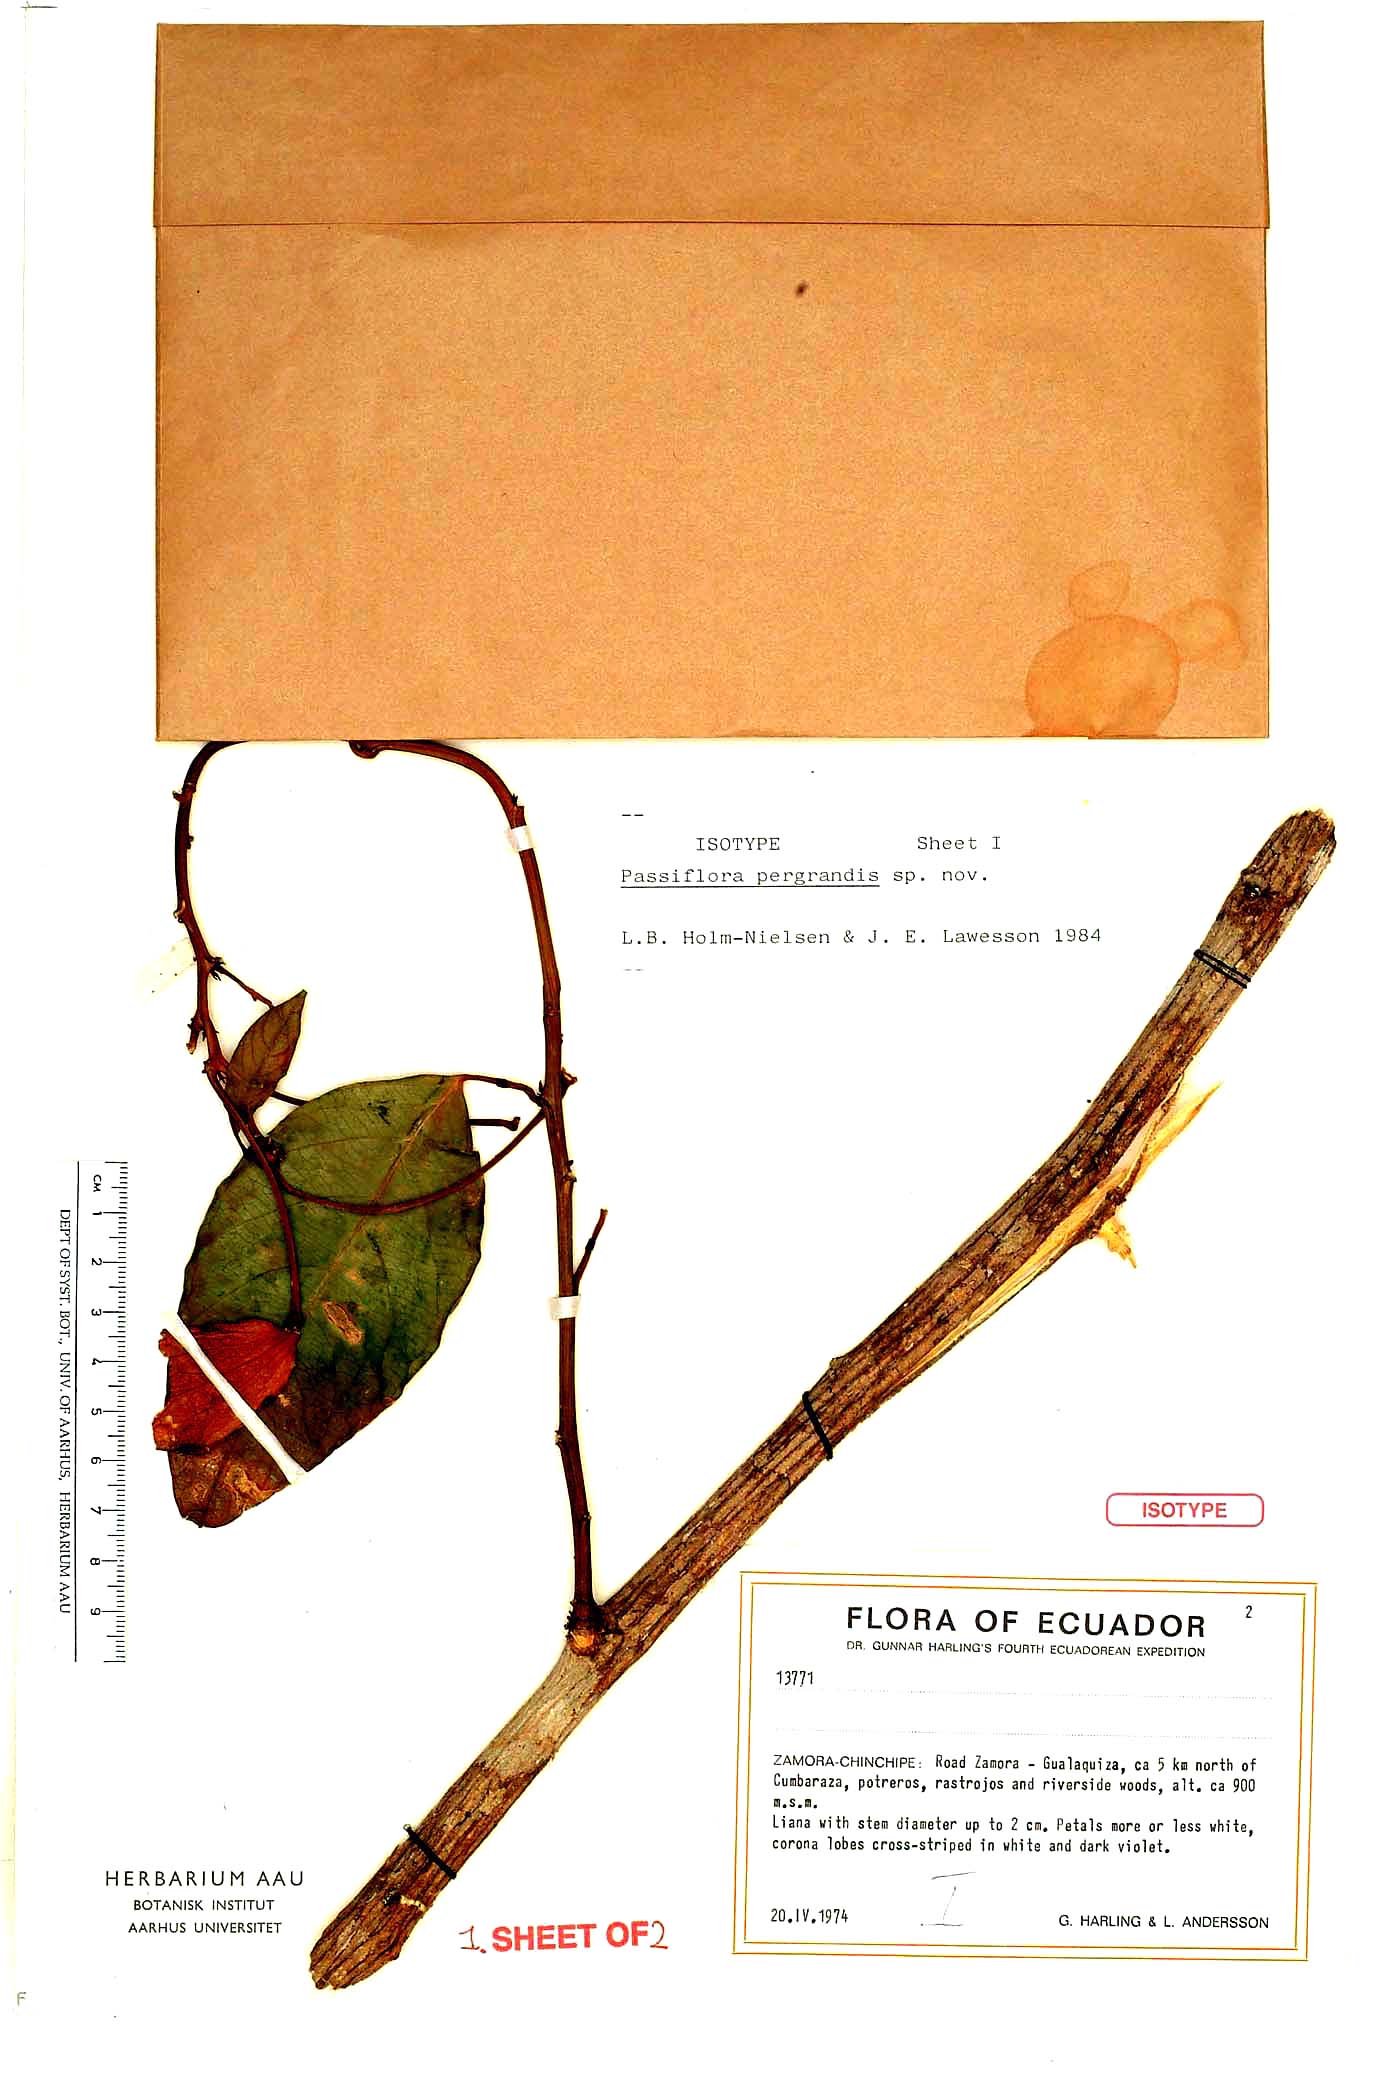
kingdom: Plantae
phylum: Tracheophyta
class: Magnoliopsida
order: Malpighiales
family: Passifloraceae
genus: Passiflora
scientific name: Passiflora riparia
